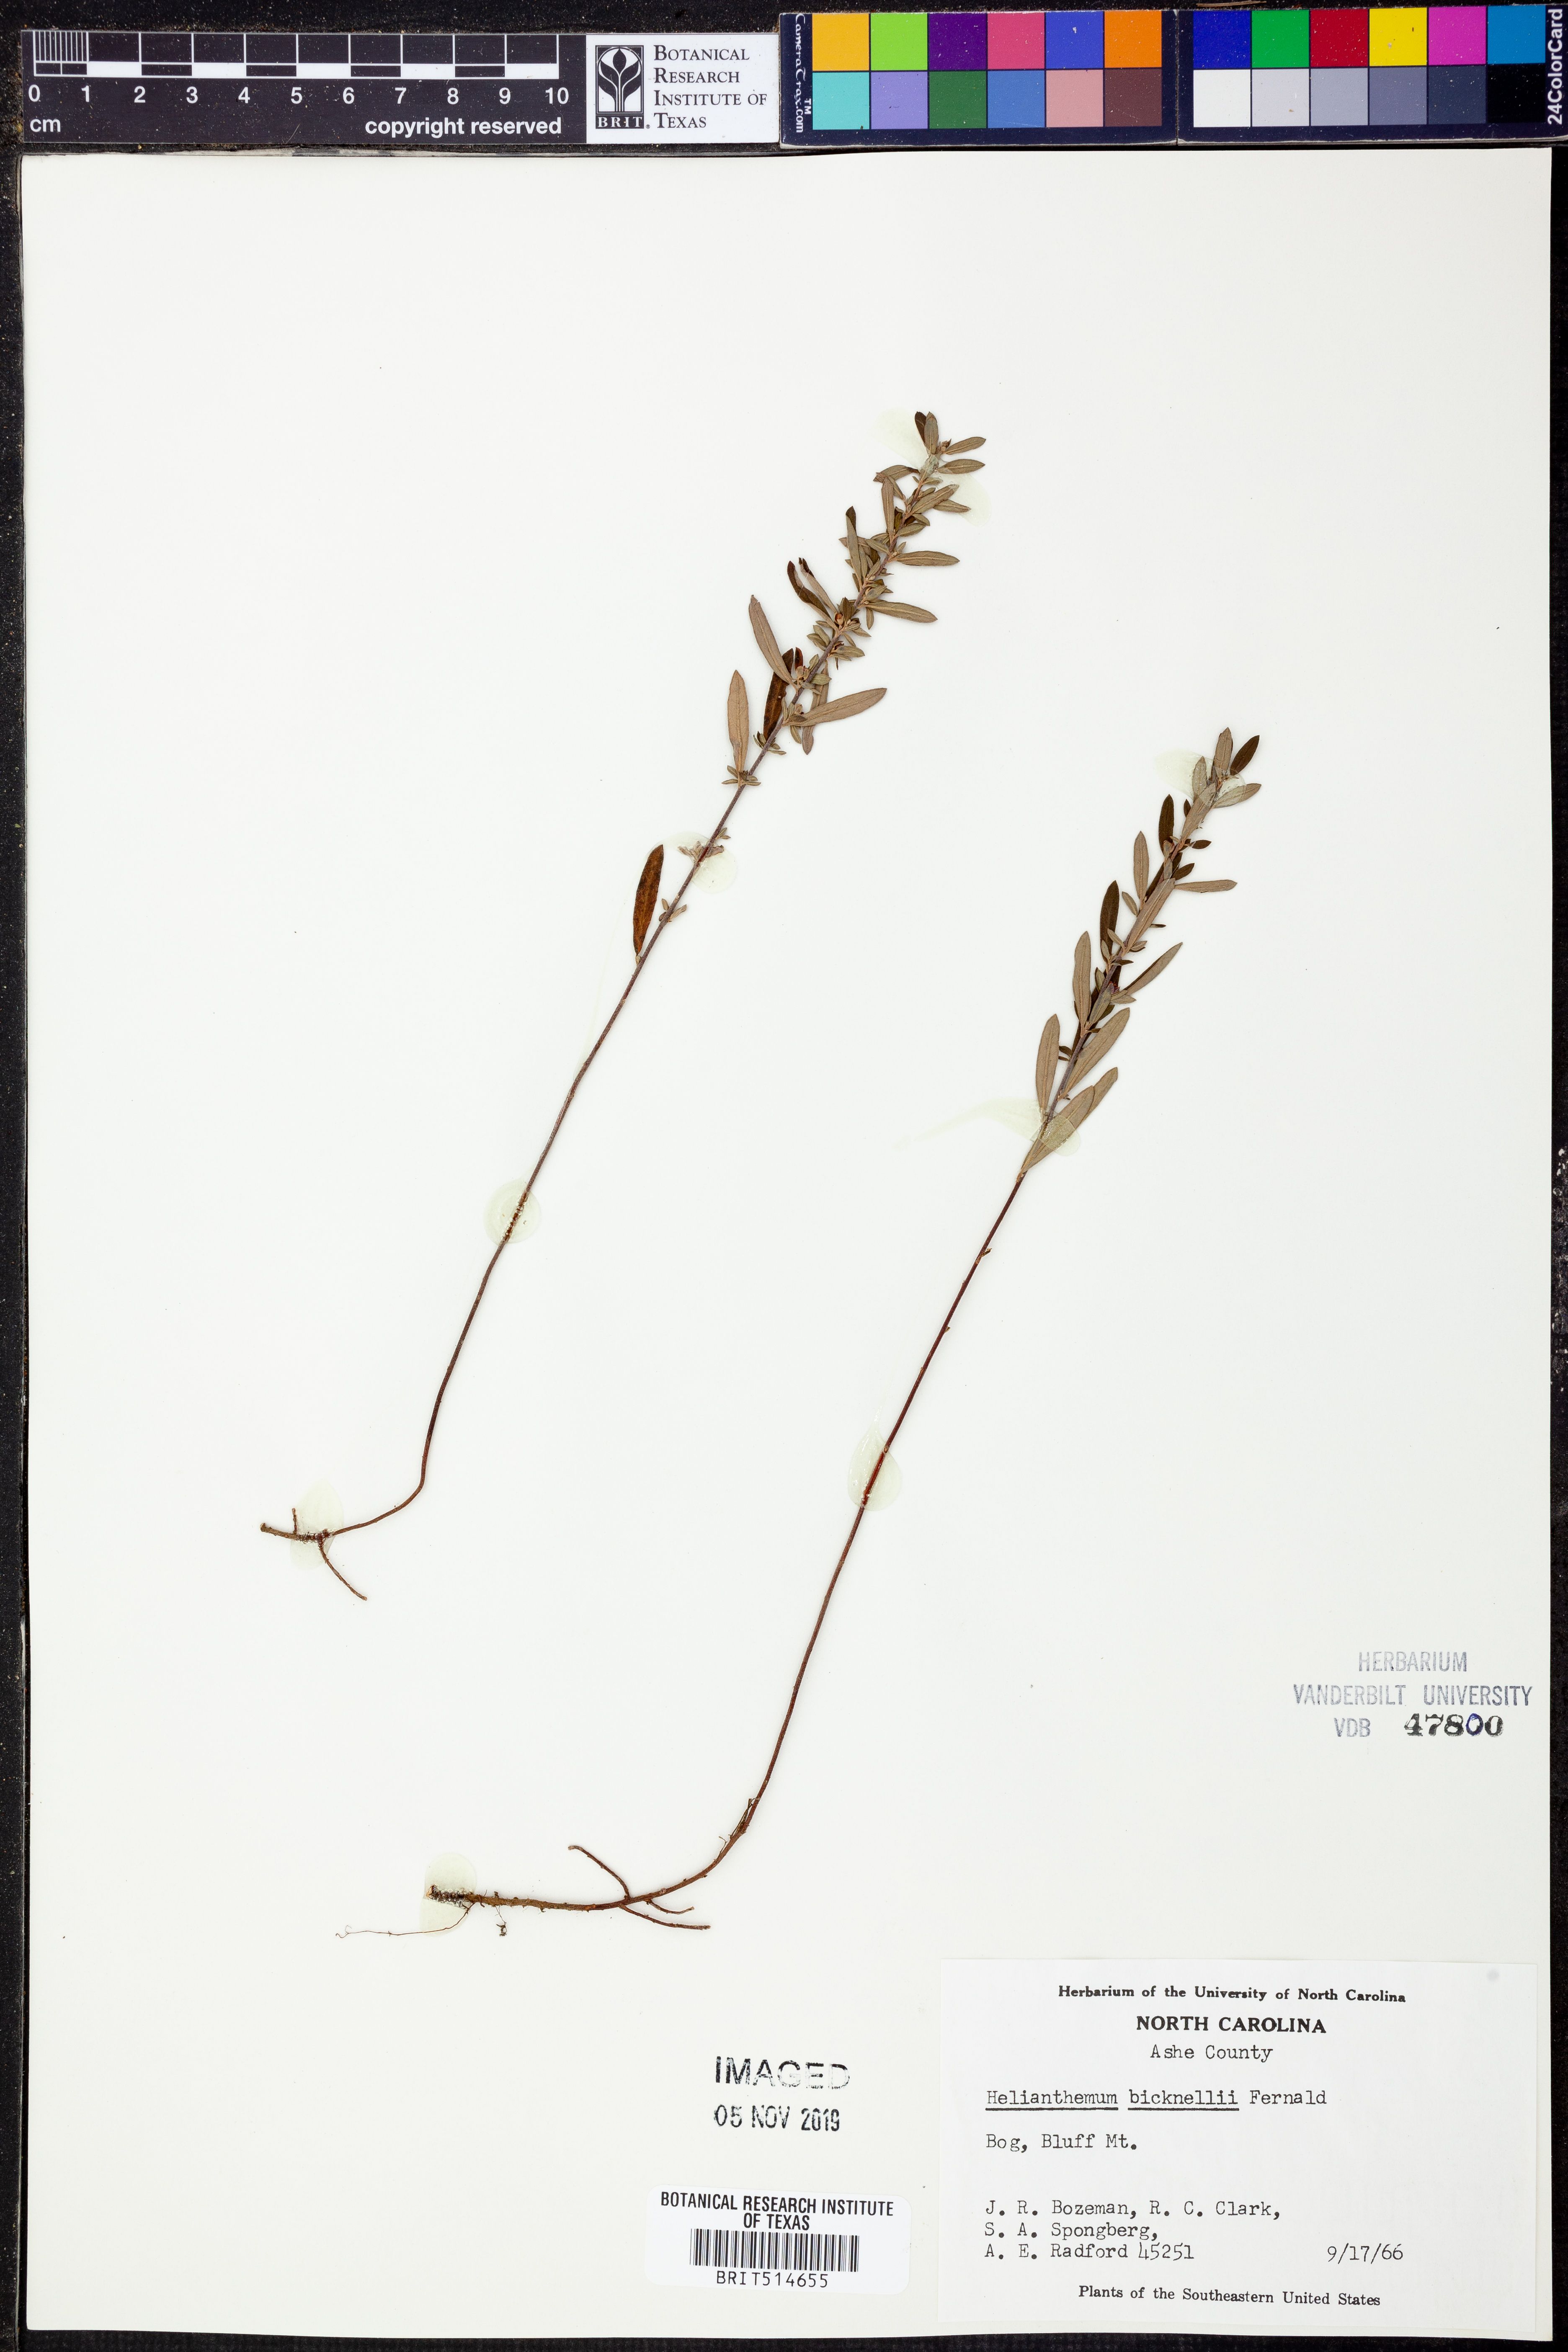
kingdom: Plantae
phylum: Tracheophyta
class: Magnoliopsida
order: Malvales
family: Cistaceae
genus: Crocanthemum
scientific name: Crocanthemum bicknellii
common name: Hoary frostweed
